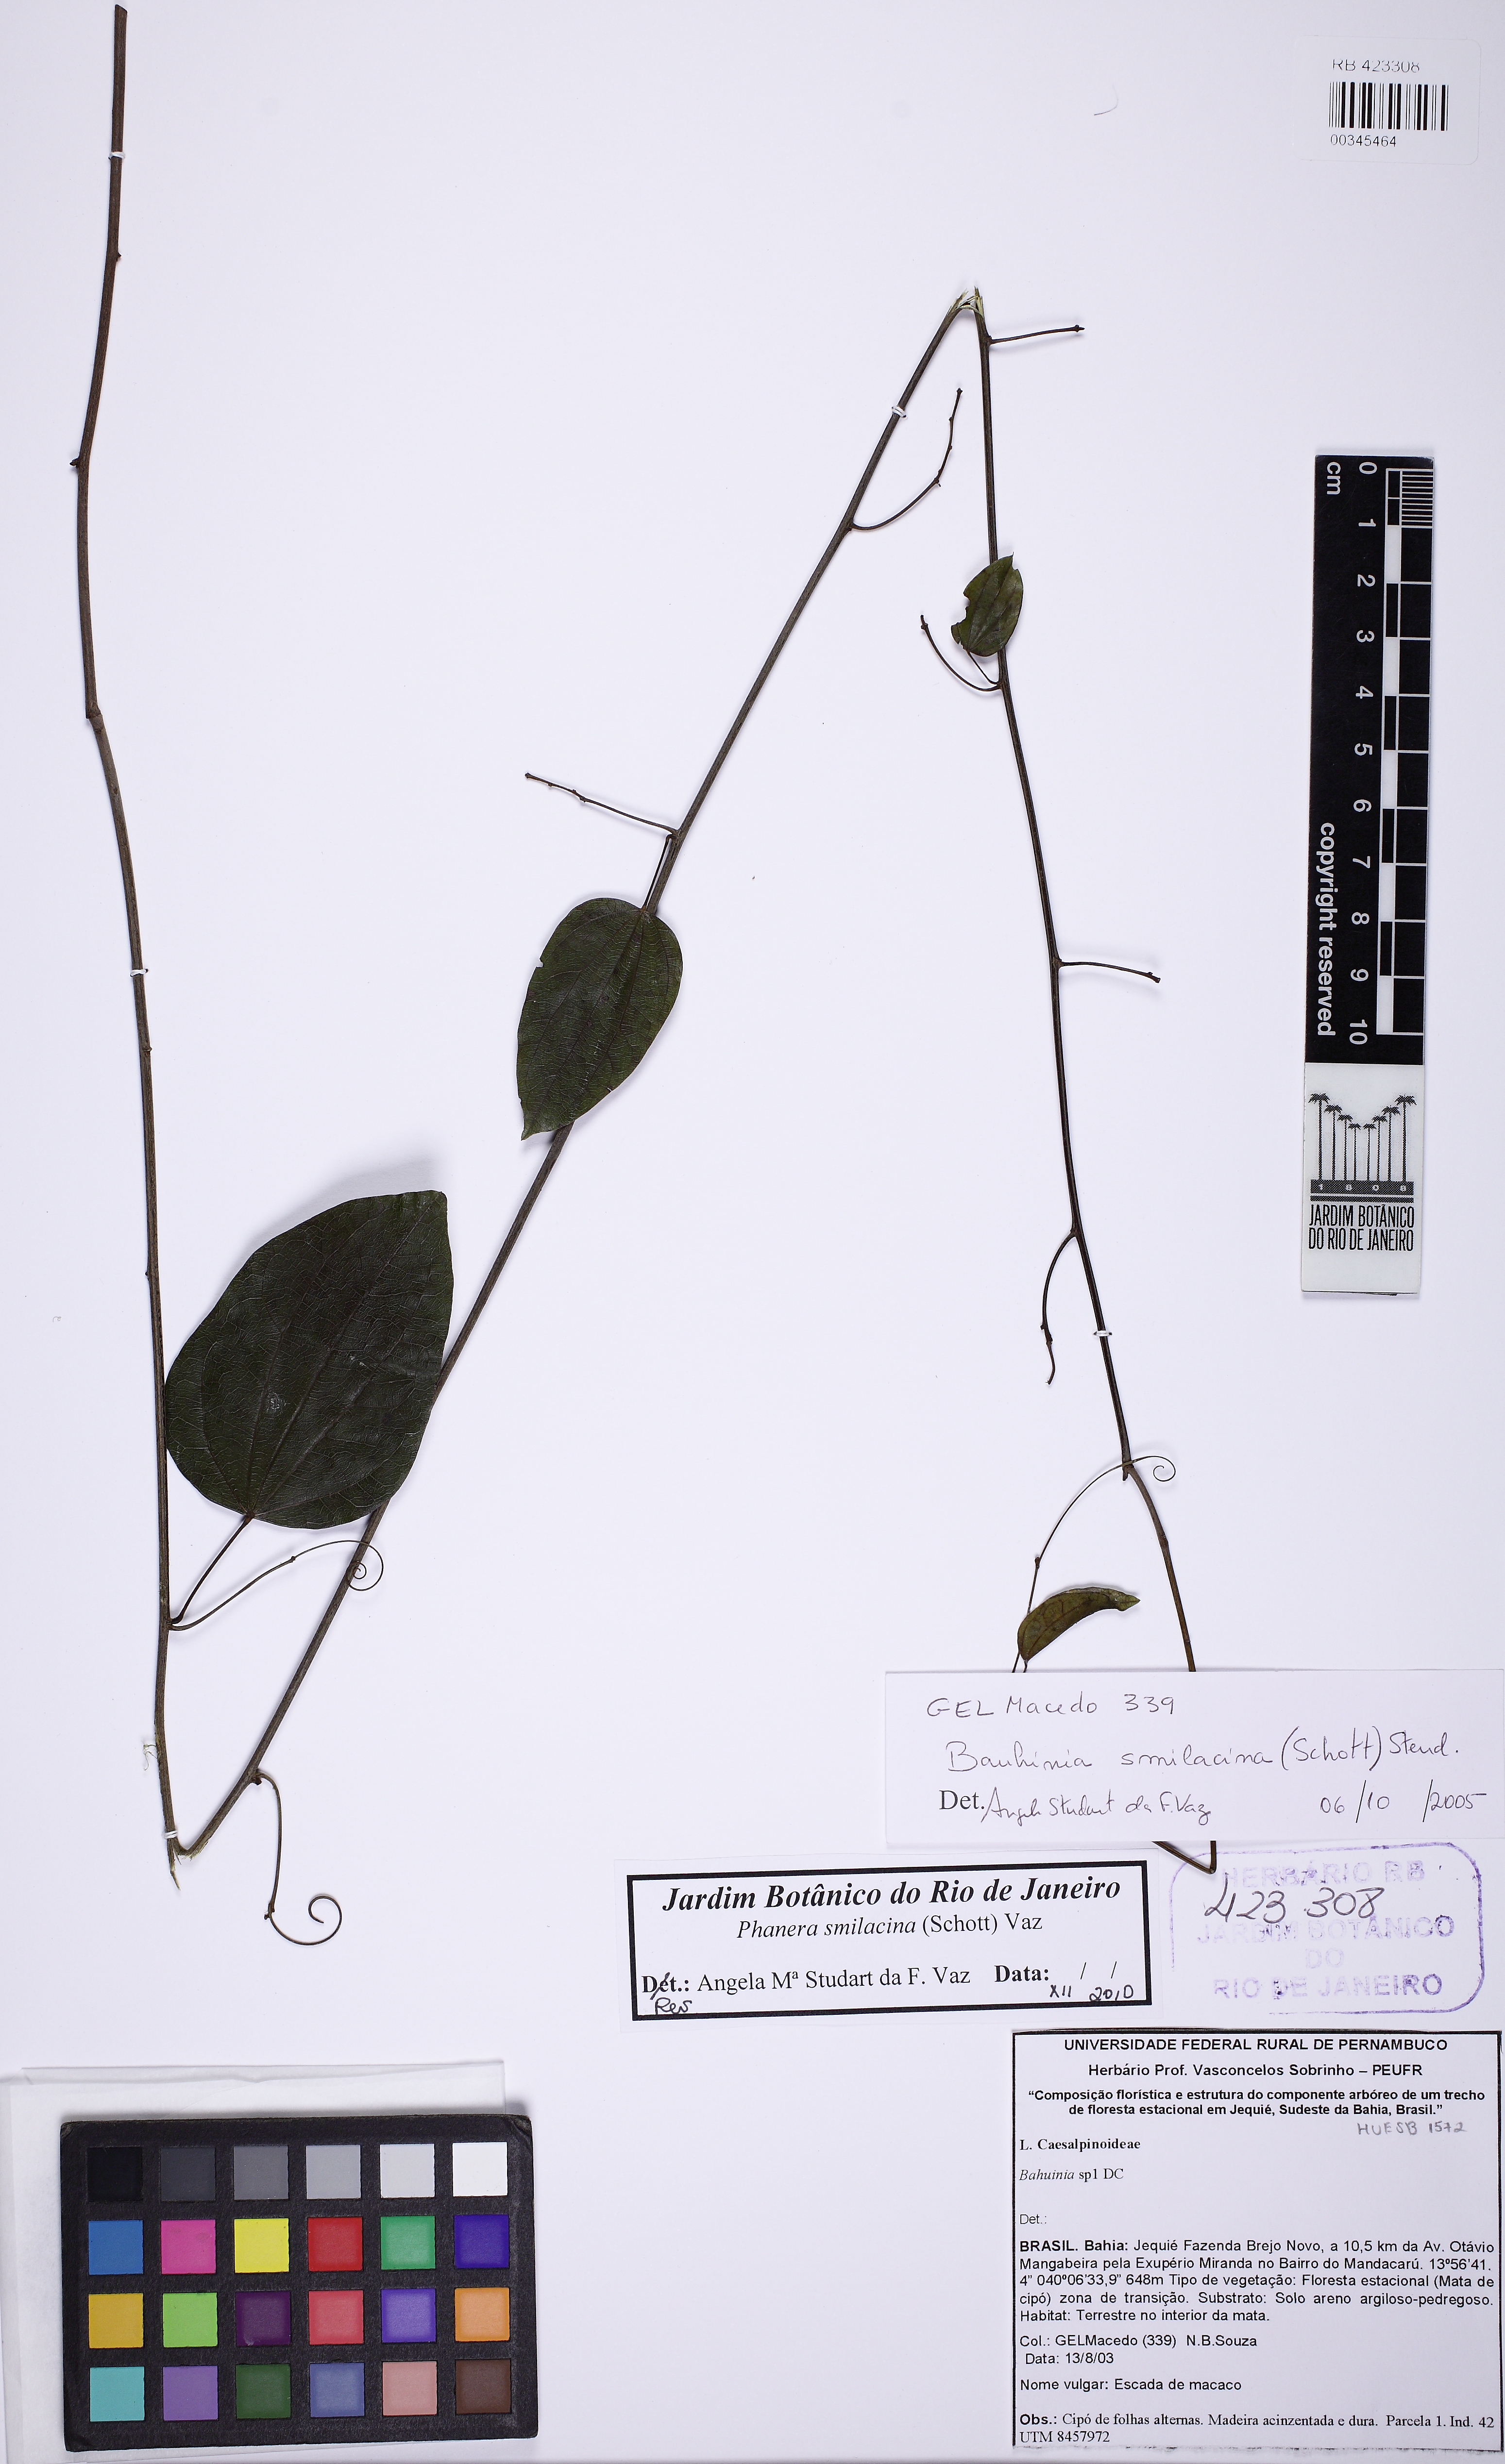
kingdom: Plantae
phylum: Tracheophyta
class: Magnoliopsida
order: Fabales
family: Fabaceae
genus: Schnella
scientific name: Schnella smilacina
